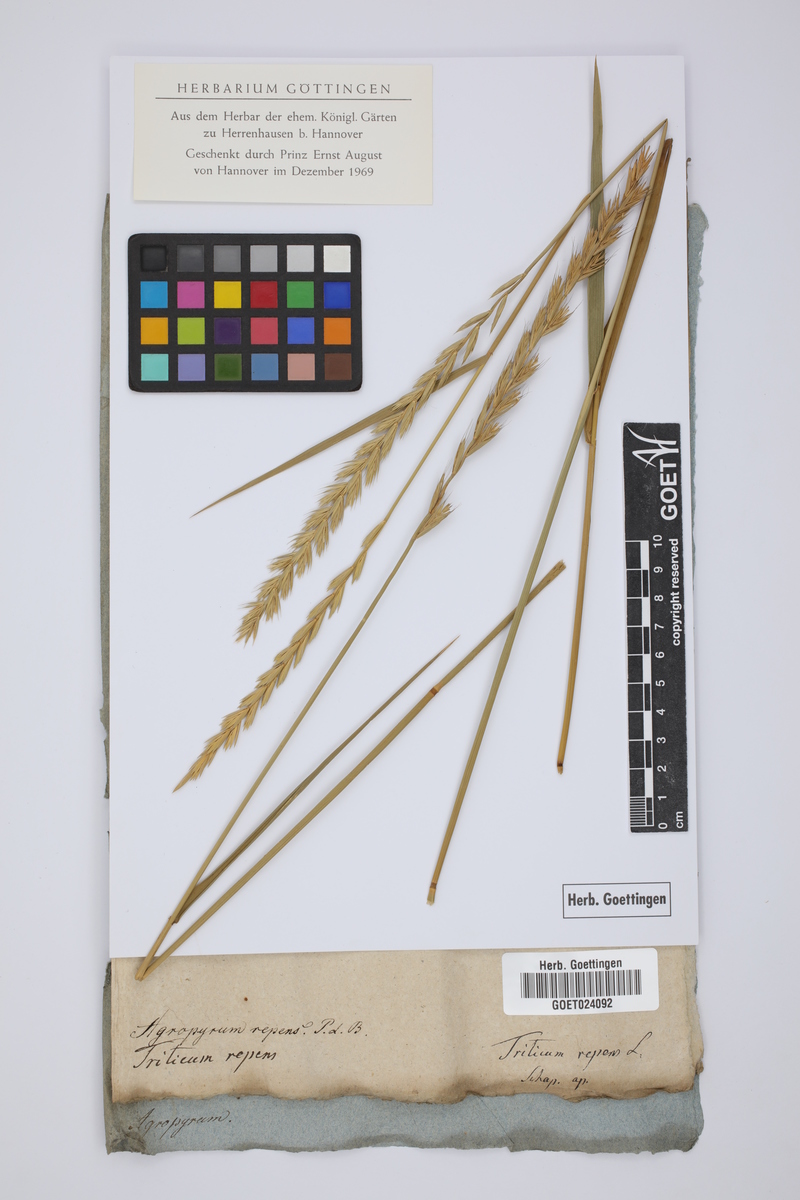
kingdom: Plantae
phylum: Tracheophyta
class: Liliopsida
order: Poales
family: Poaceae
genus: Elymus
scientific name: Elymus repens
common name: Quackgrass
